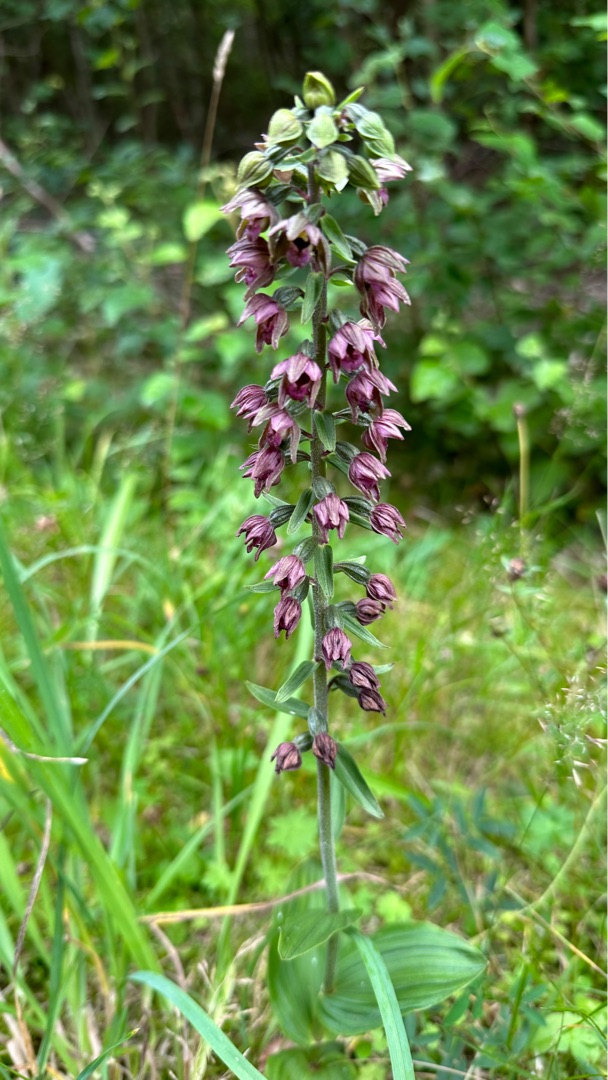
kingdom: Plantae
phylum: Tracheophyta
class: Liliopsida
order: Asparagales
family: Orchidaceae
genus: Epipactis
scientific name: Epipactis helleborine
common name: Hollandsk hullæbe
